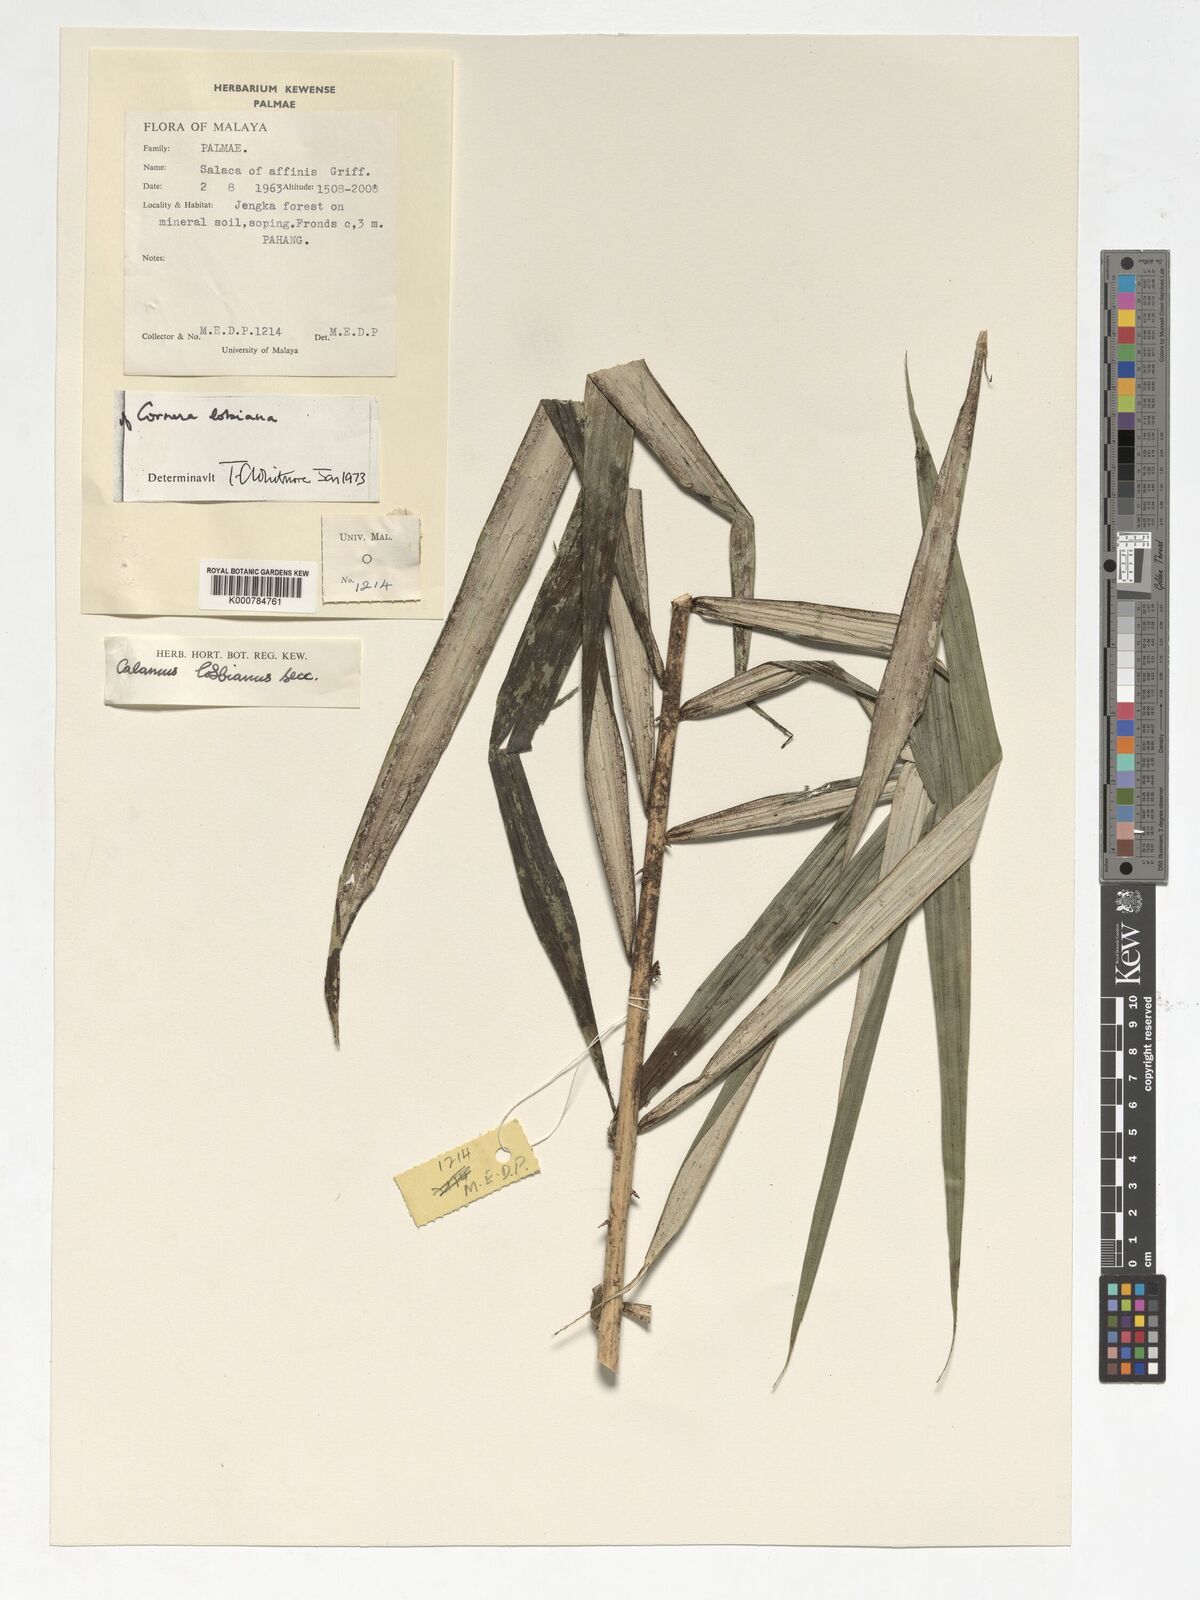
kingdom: Plantae
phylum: Tracheophyta
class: Liliopsida
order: Arecales
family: Arecaceae
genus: Calamus
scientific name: Calamus lobbianus
